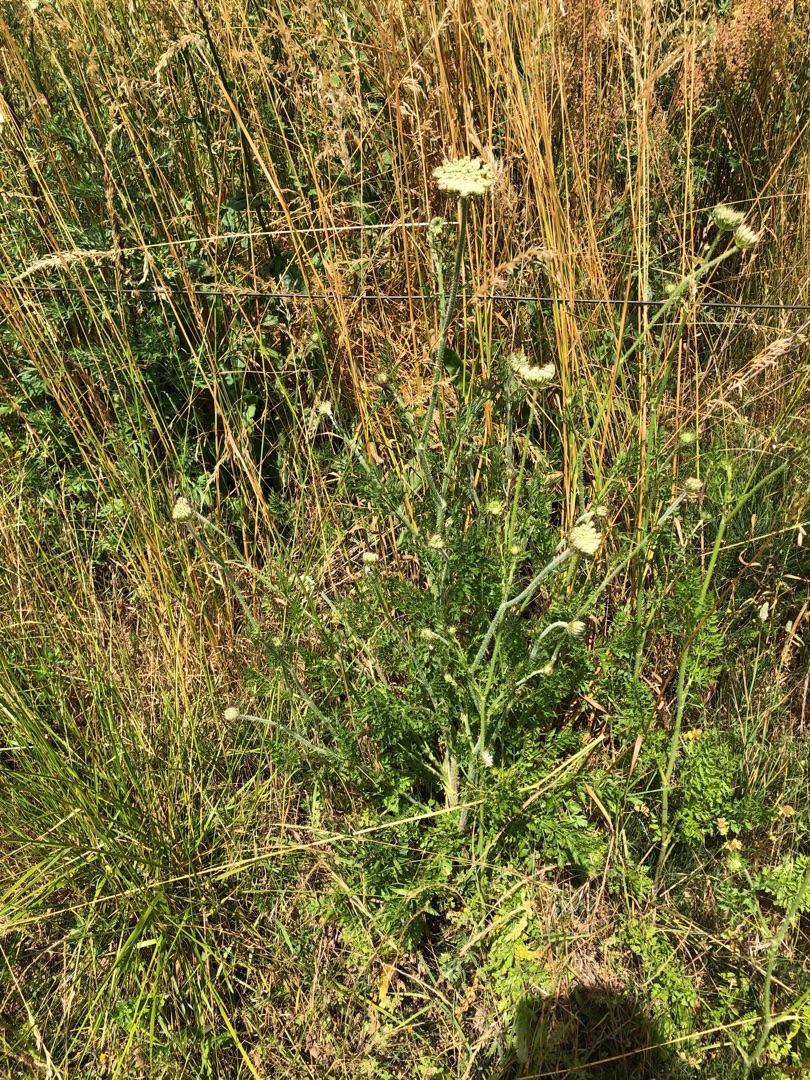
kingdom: Plantae
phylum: Tracheophyta
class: Magnoliopsida
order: Apiales
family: Apiaceae
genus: Daucus
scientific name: Daucus carota
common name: Vild gulerod
